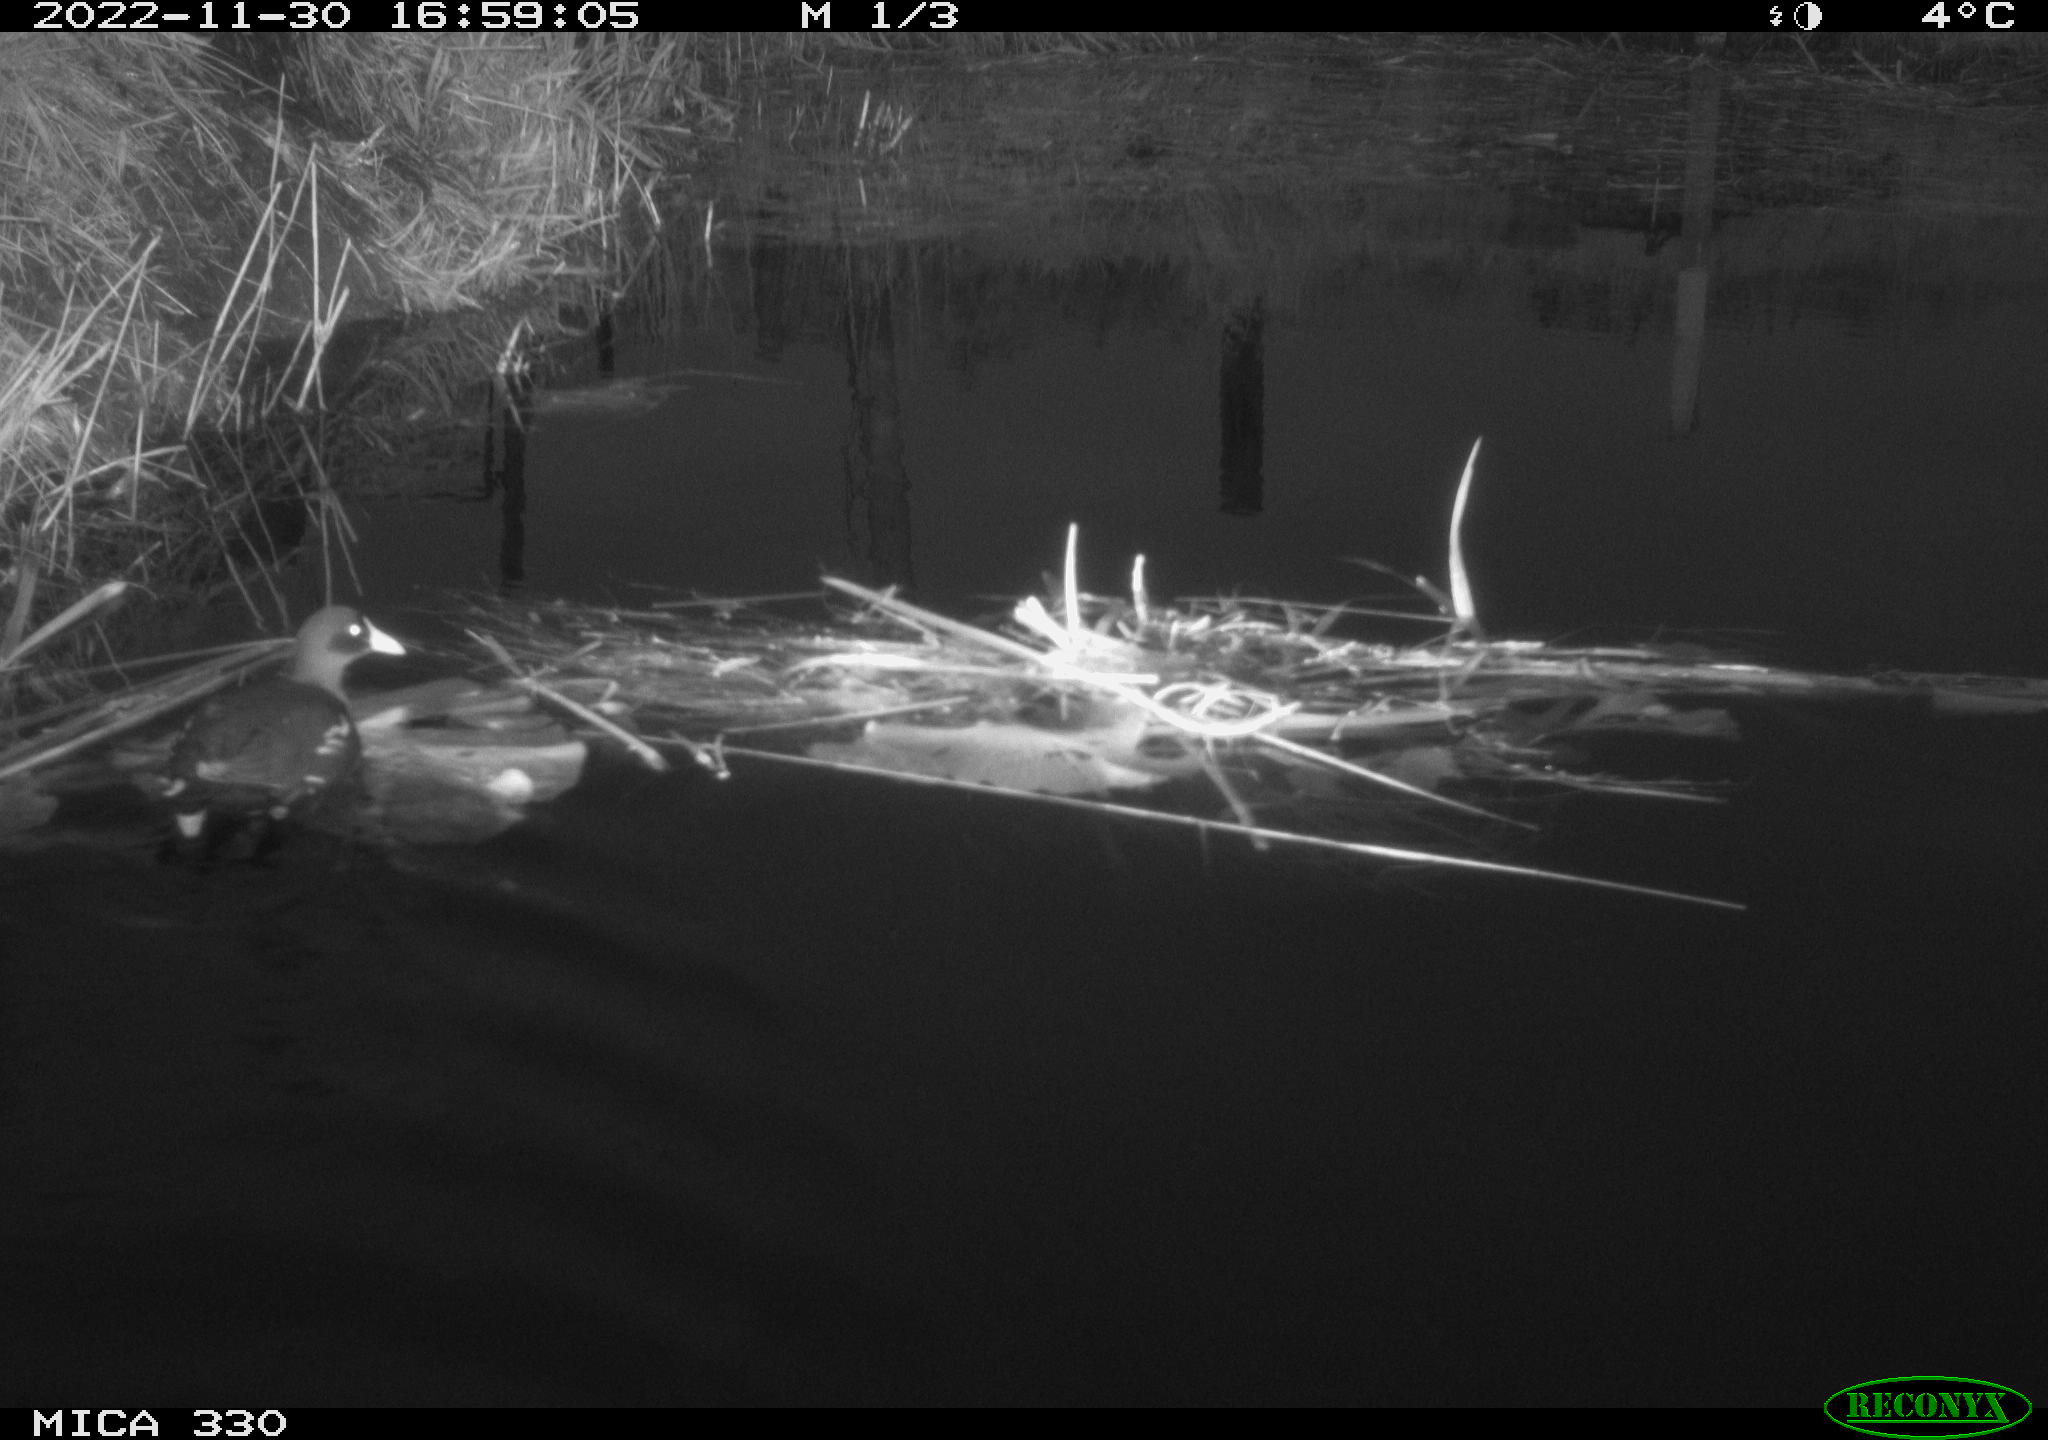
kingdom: Animalia
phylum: Chordata
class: Aves
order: Gruiformes
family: Rallidae
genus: Gallinula
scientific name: Gallinula chloropus
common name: Common moorhen
